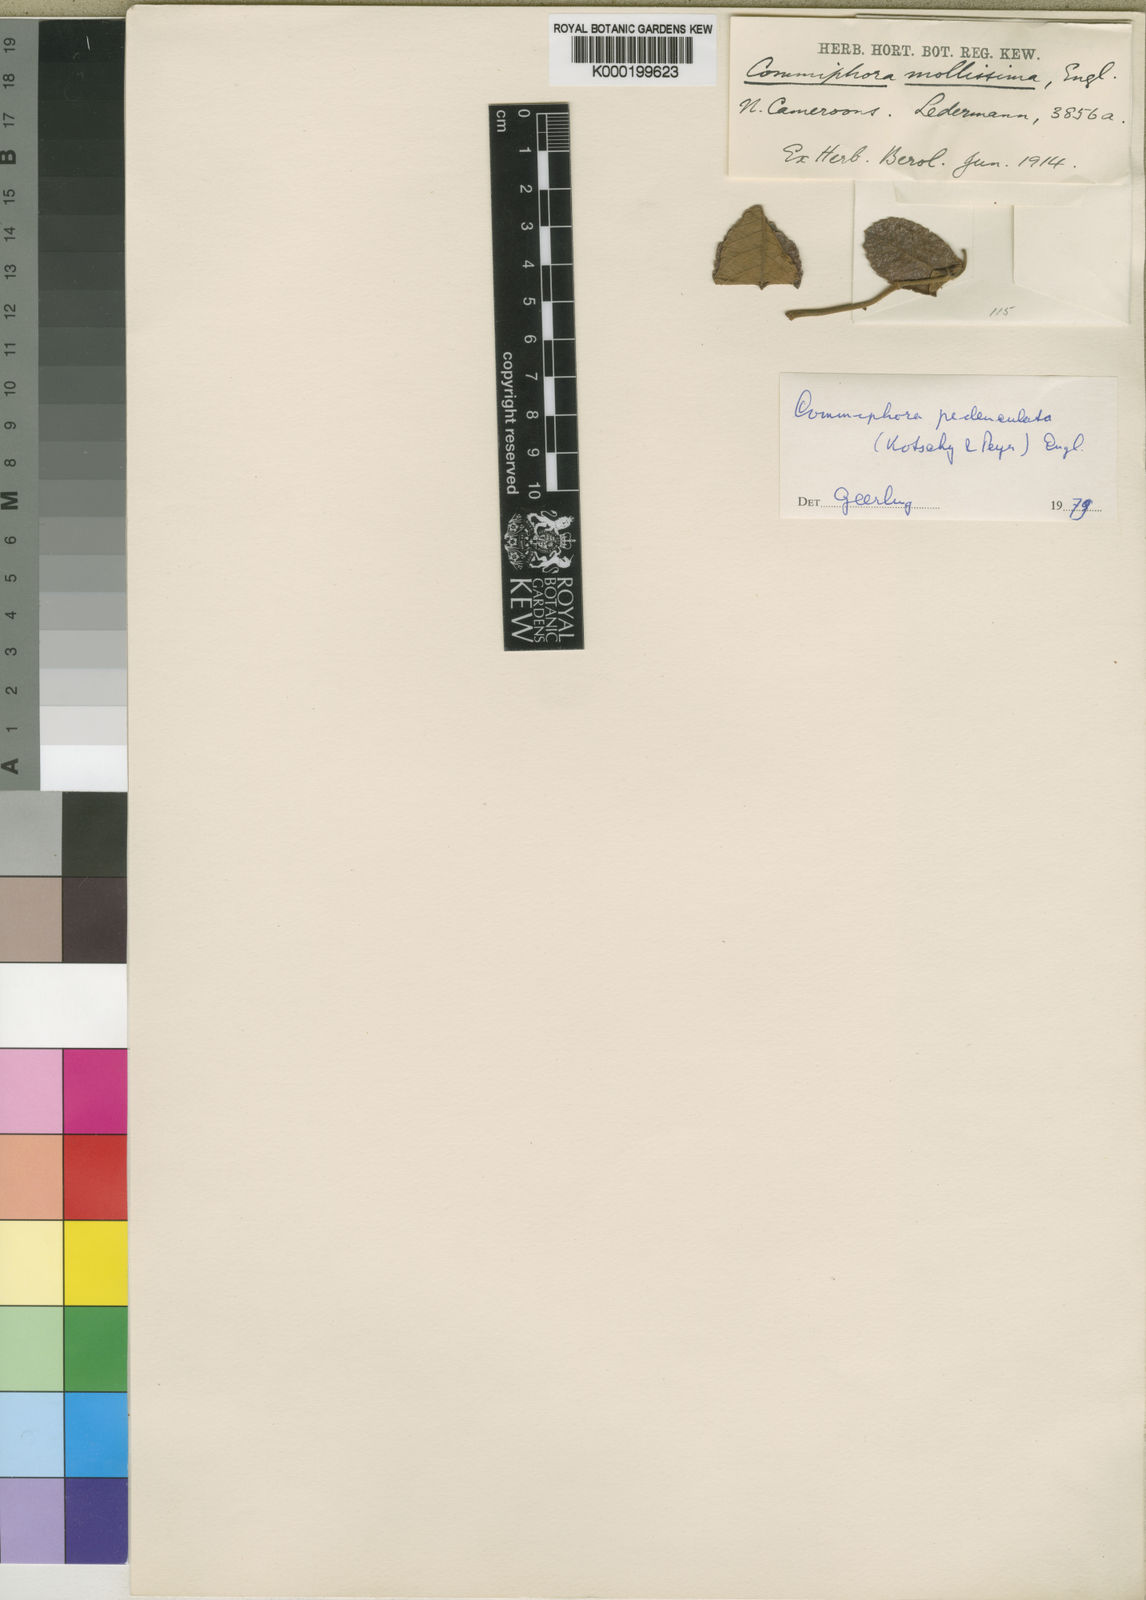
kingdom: Plantae
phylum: Tracheophyta
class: Magnoliopsida
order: Sapindales
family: Burseraceae
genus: Commiphora
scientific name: Commiphora pedunculata
